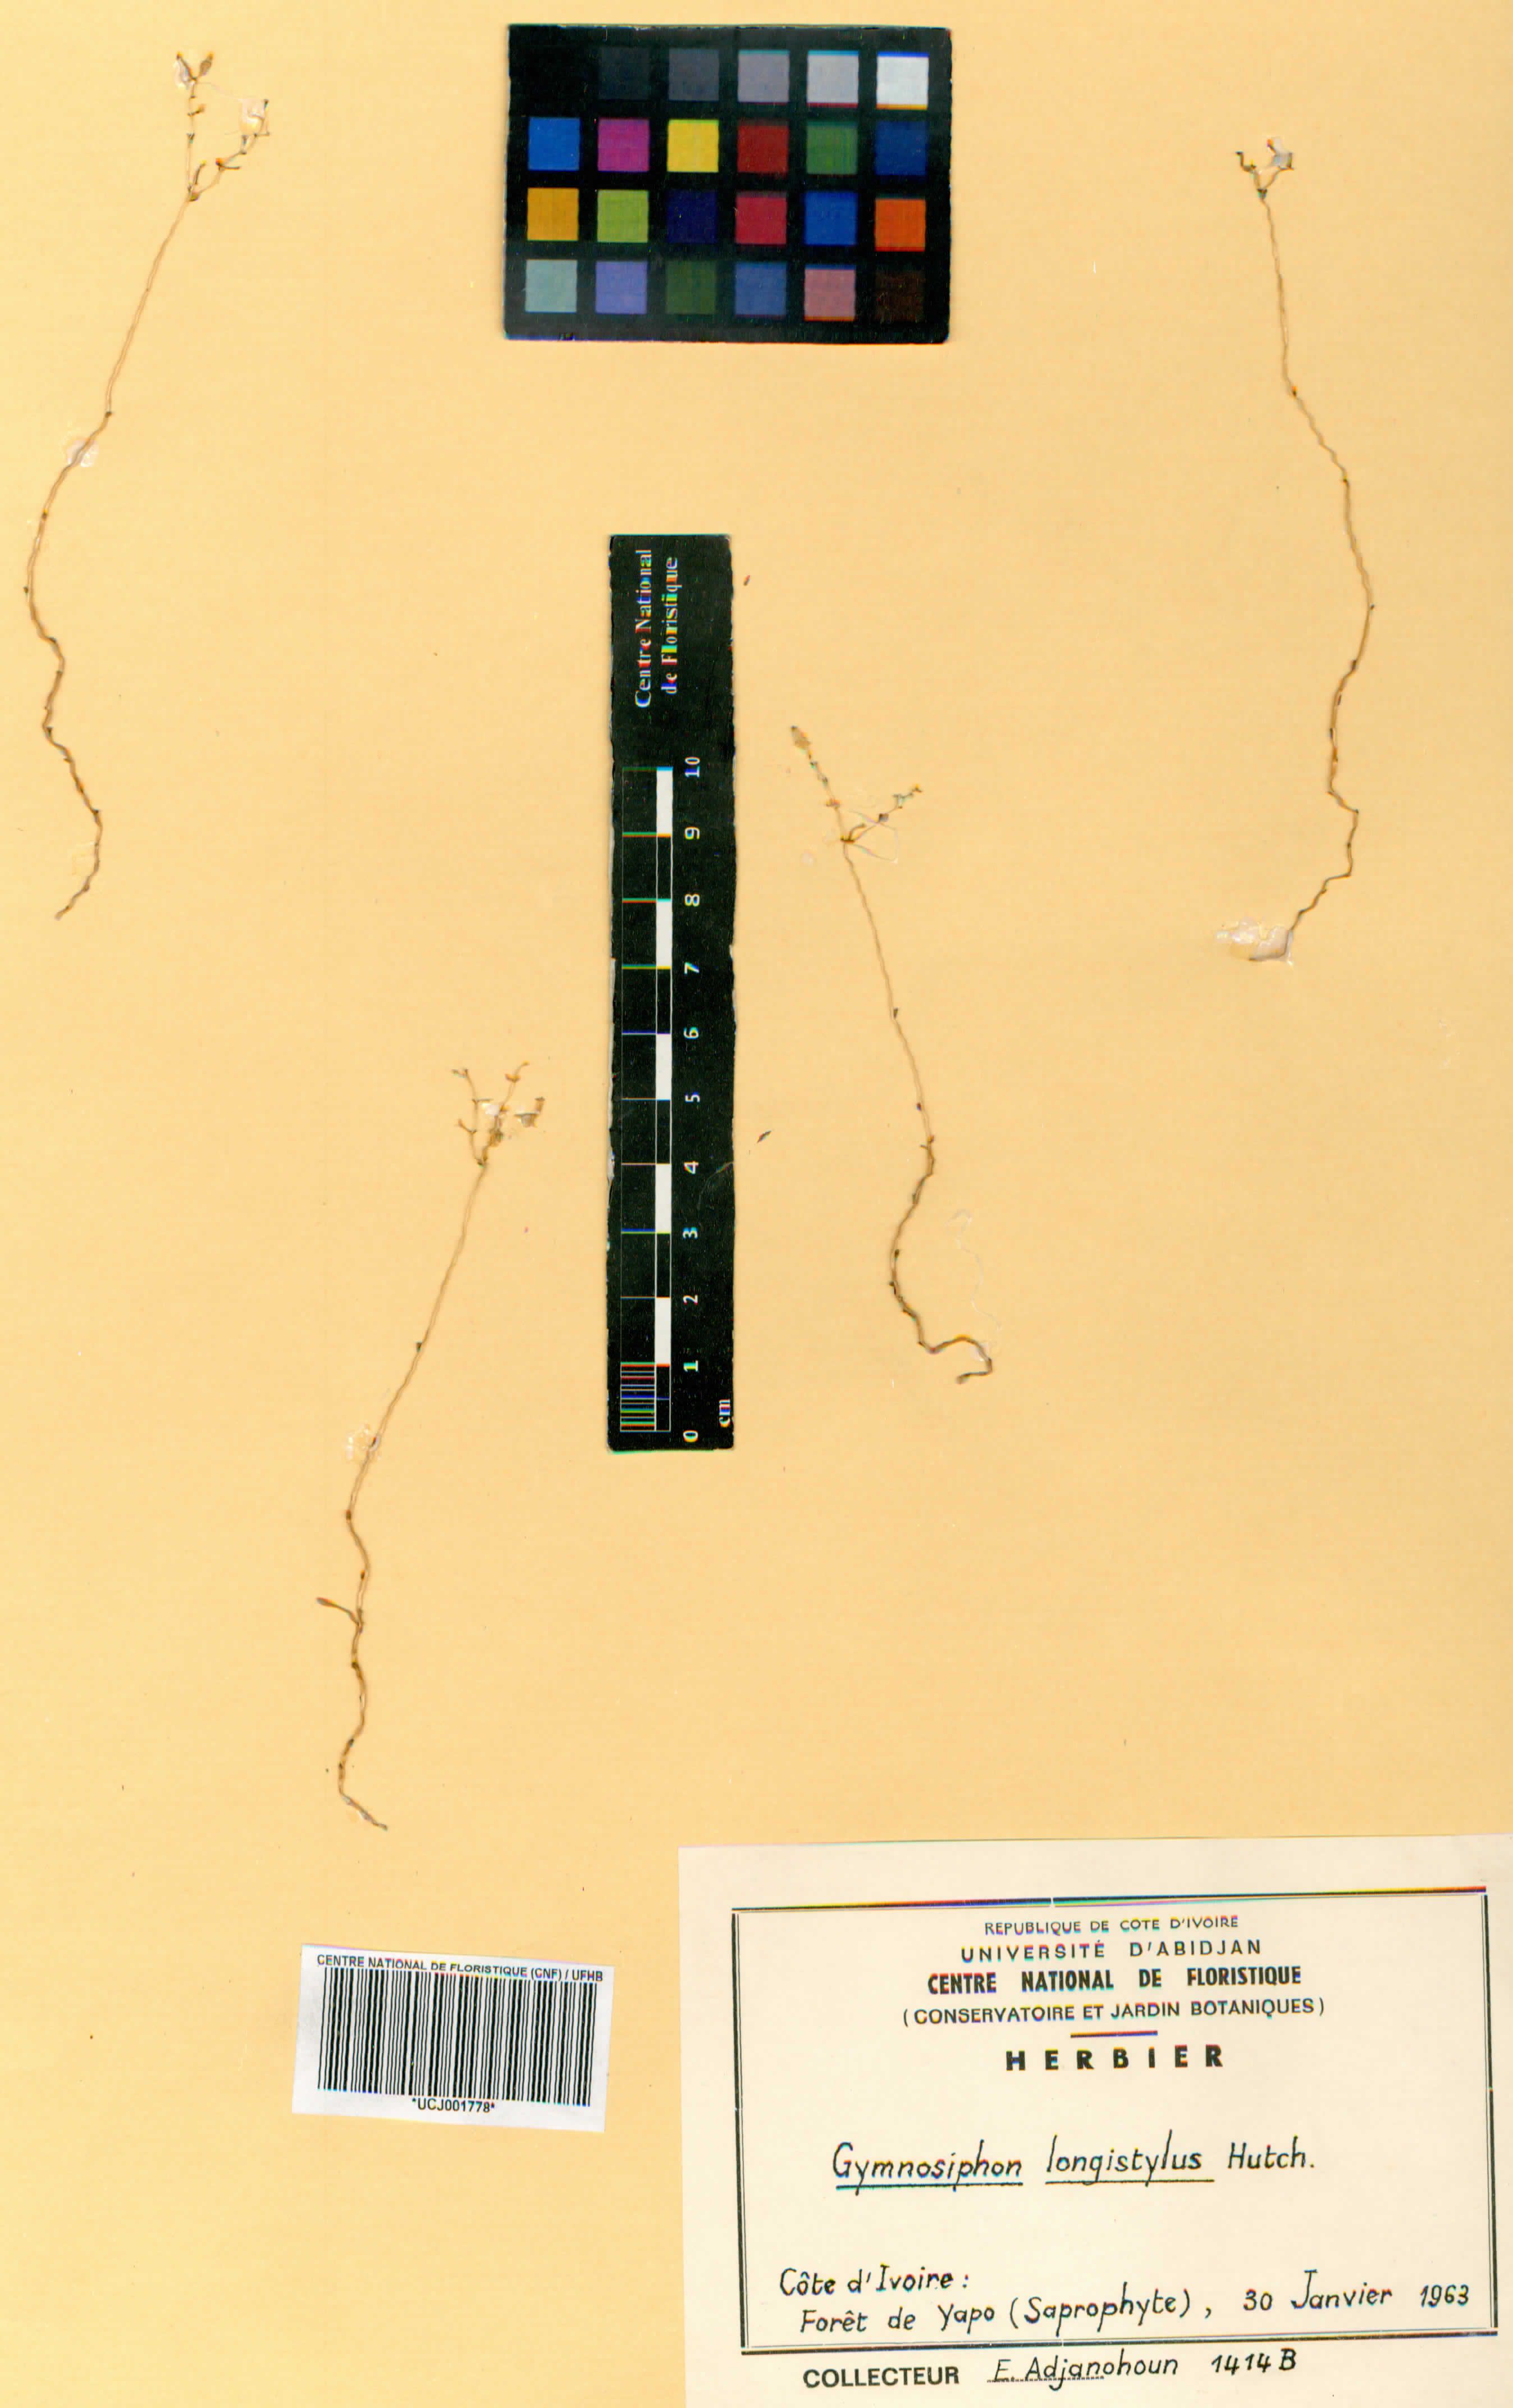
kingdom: Plantae
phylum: Tracheophyta
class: Liliopsida
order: Dioscoreales
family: Burmanniaceae
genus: Gymnosiphon
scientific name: Gymnosiphon longistylus
